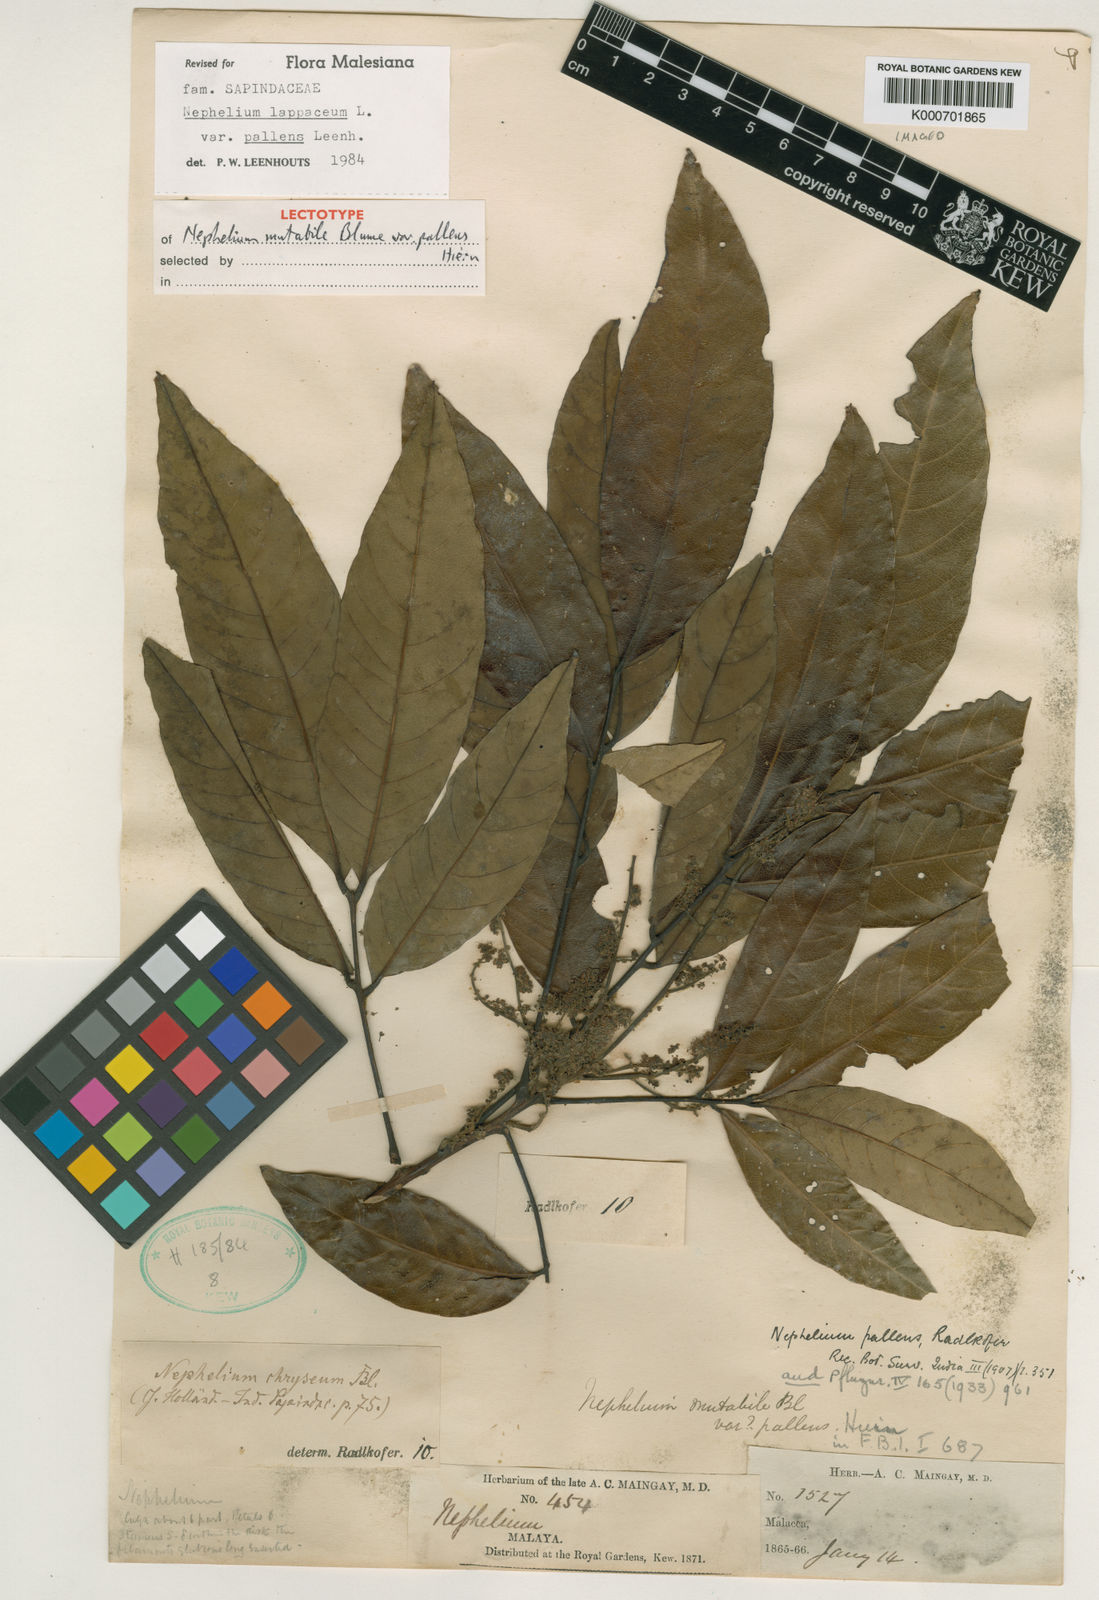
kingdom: Plantae
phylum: Tracheophyta
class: Magnoliopsida
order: Sapindales
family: Sapindaceae
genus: Nephelium
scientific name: Nephelium lappaceum
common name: Rambutan
